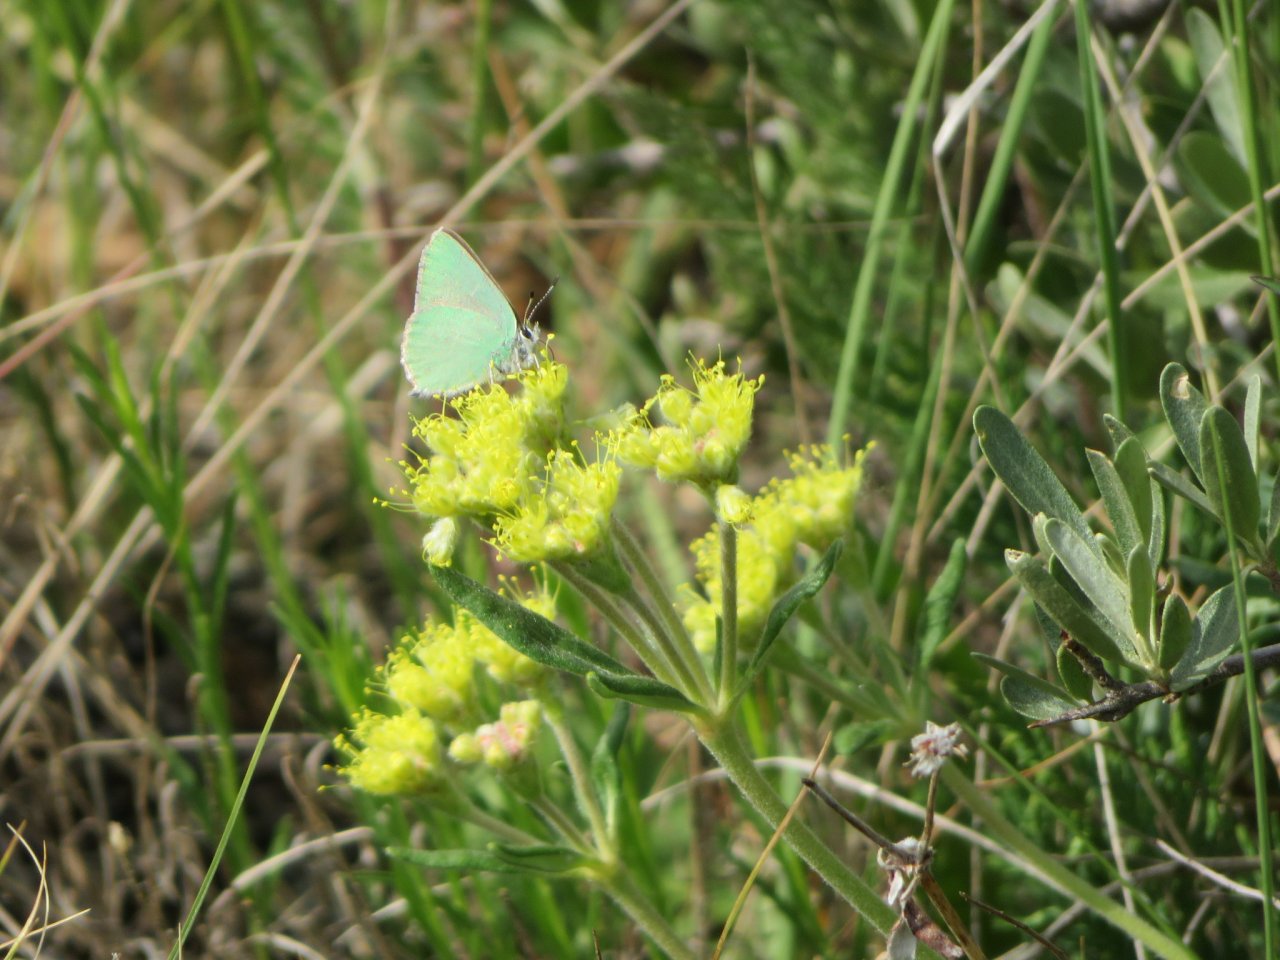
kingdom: Animalia
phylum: Arthropoda
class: Insecta
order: Lepidoptera
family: Lycaenidae
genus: Callophrys
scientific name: Callophrys affinis
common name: Western Green Hairstreak
